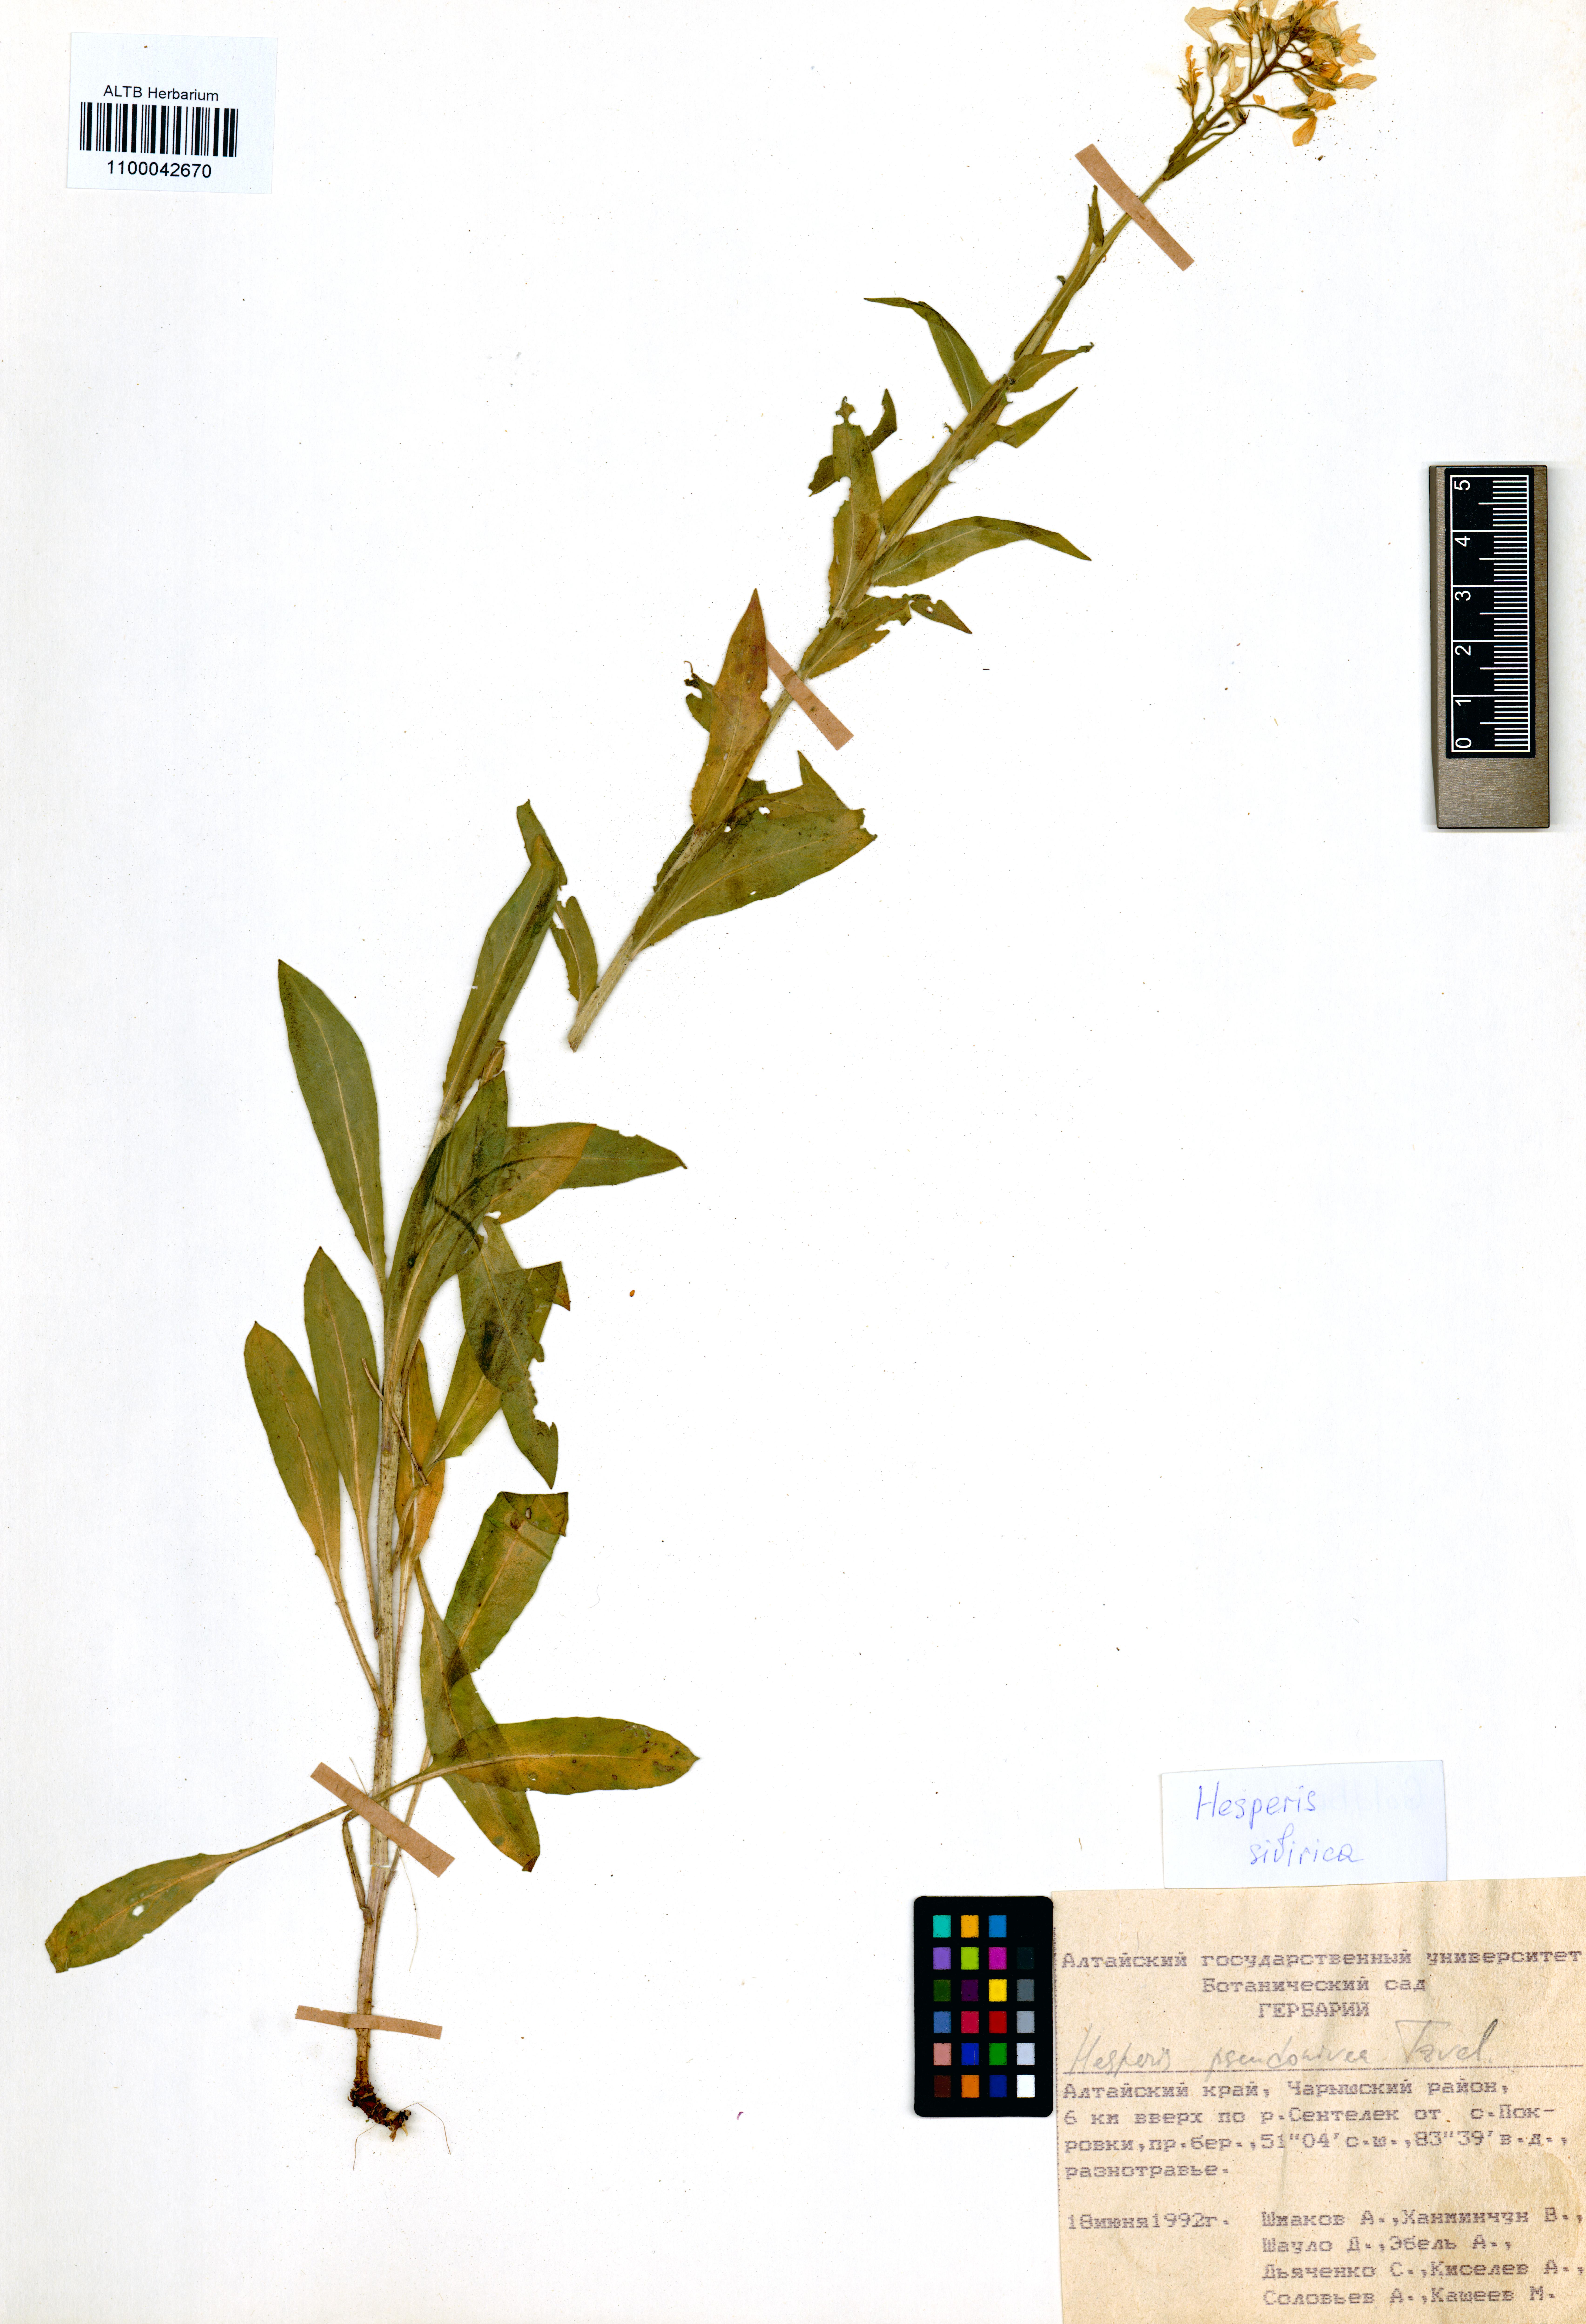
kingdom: Plantae
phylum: Tracheophyta
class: Magnoliopsida
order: Brassicales
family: Brassicaceae
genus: Hesperis
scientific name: Hesperis sibirica
